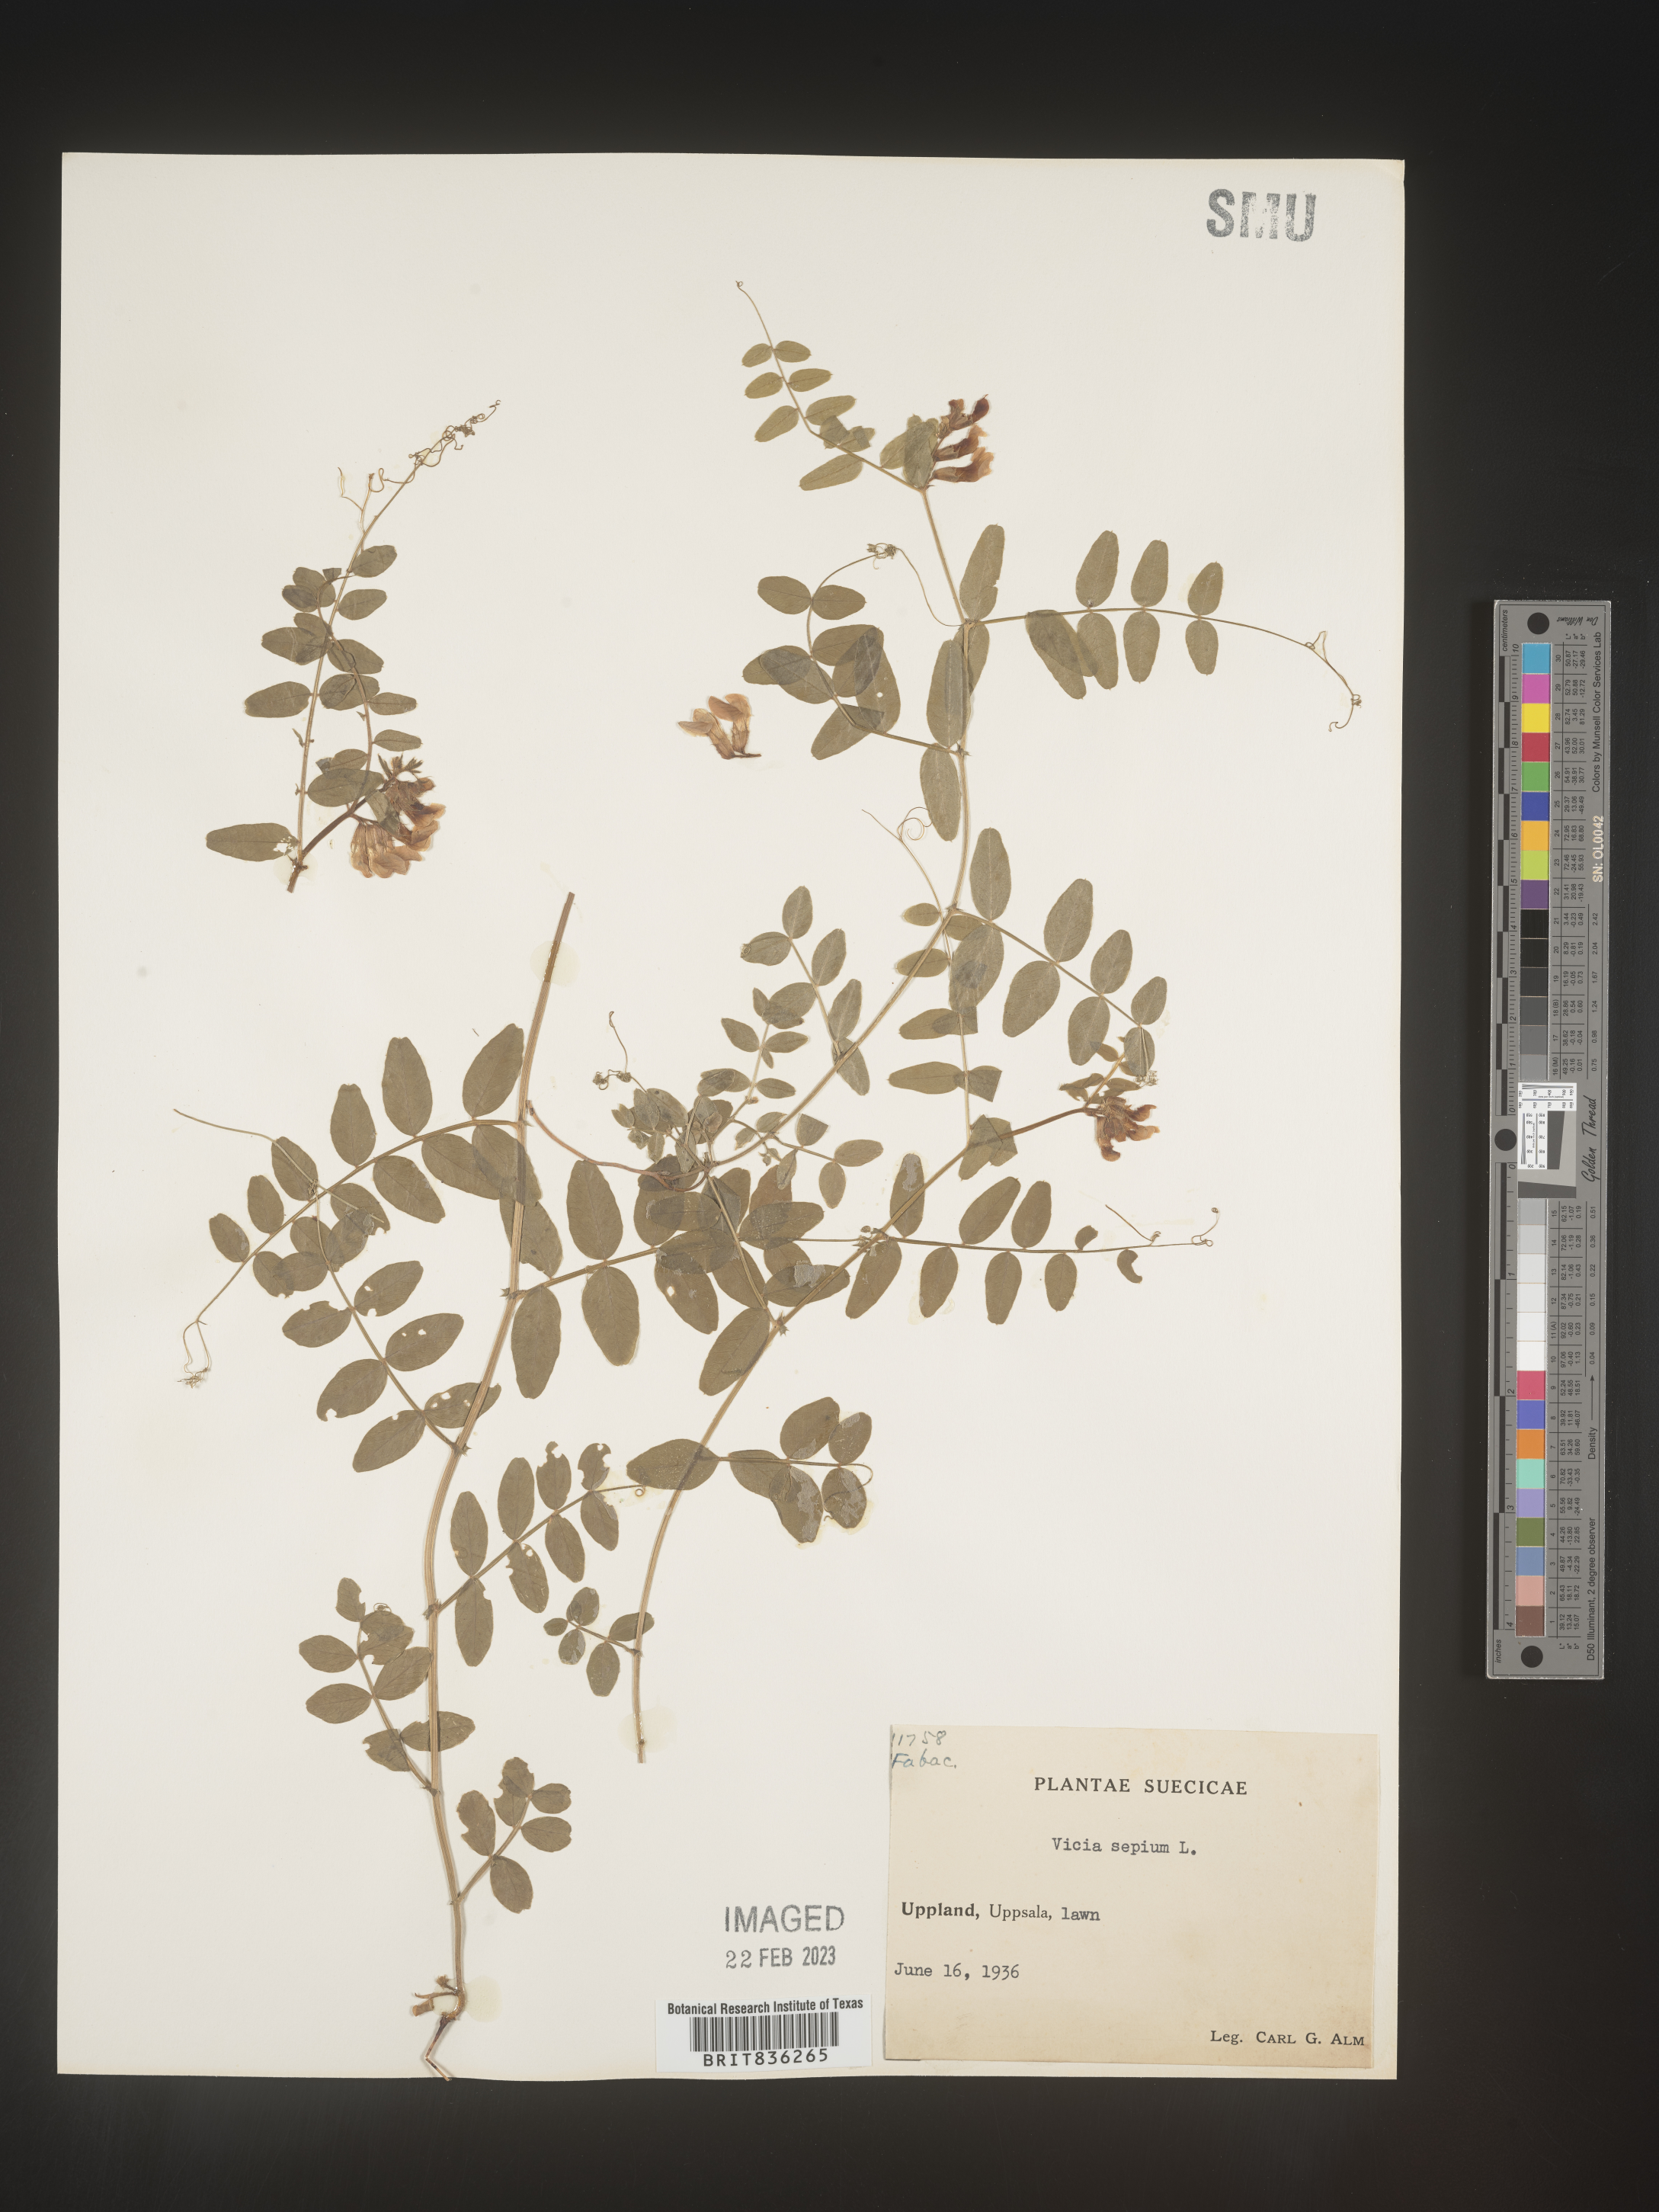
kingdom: Plantae
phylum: Tracheophyta
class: Magnoliopsida
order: Fabales
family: Fabaceae
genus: Vicia
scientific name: Vicia
